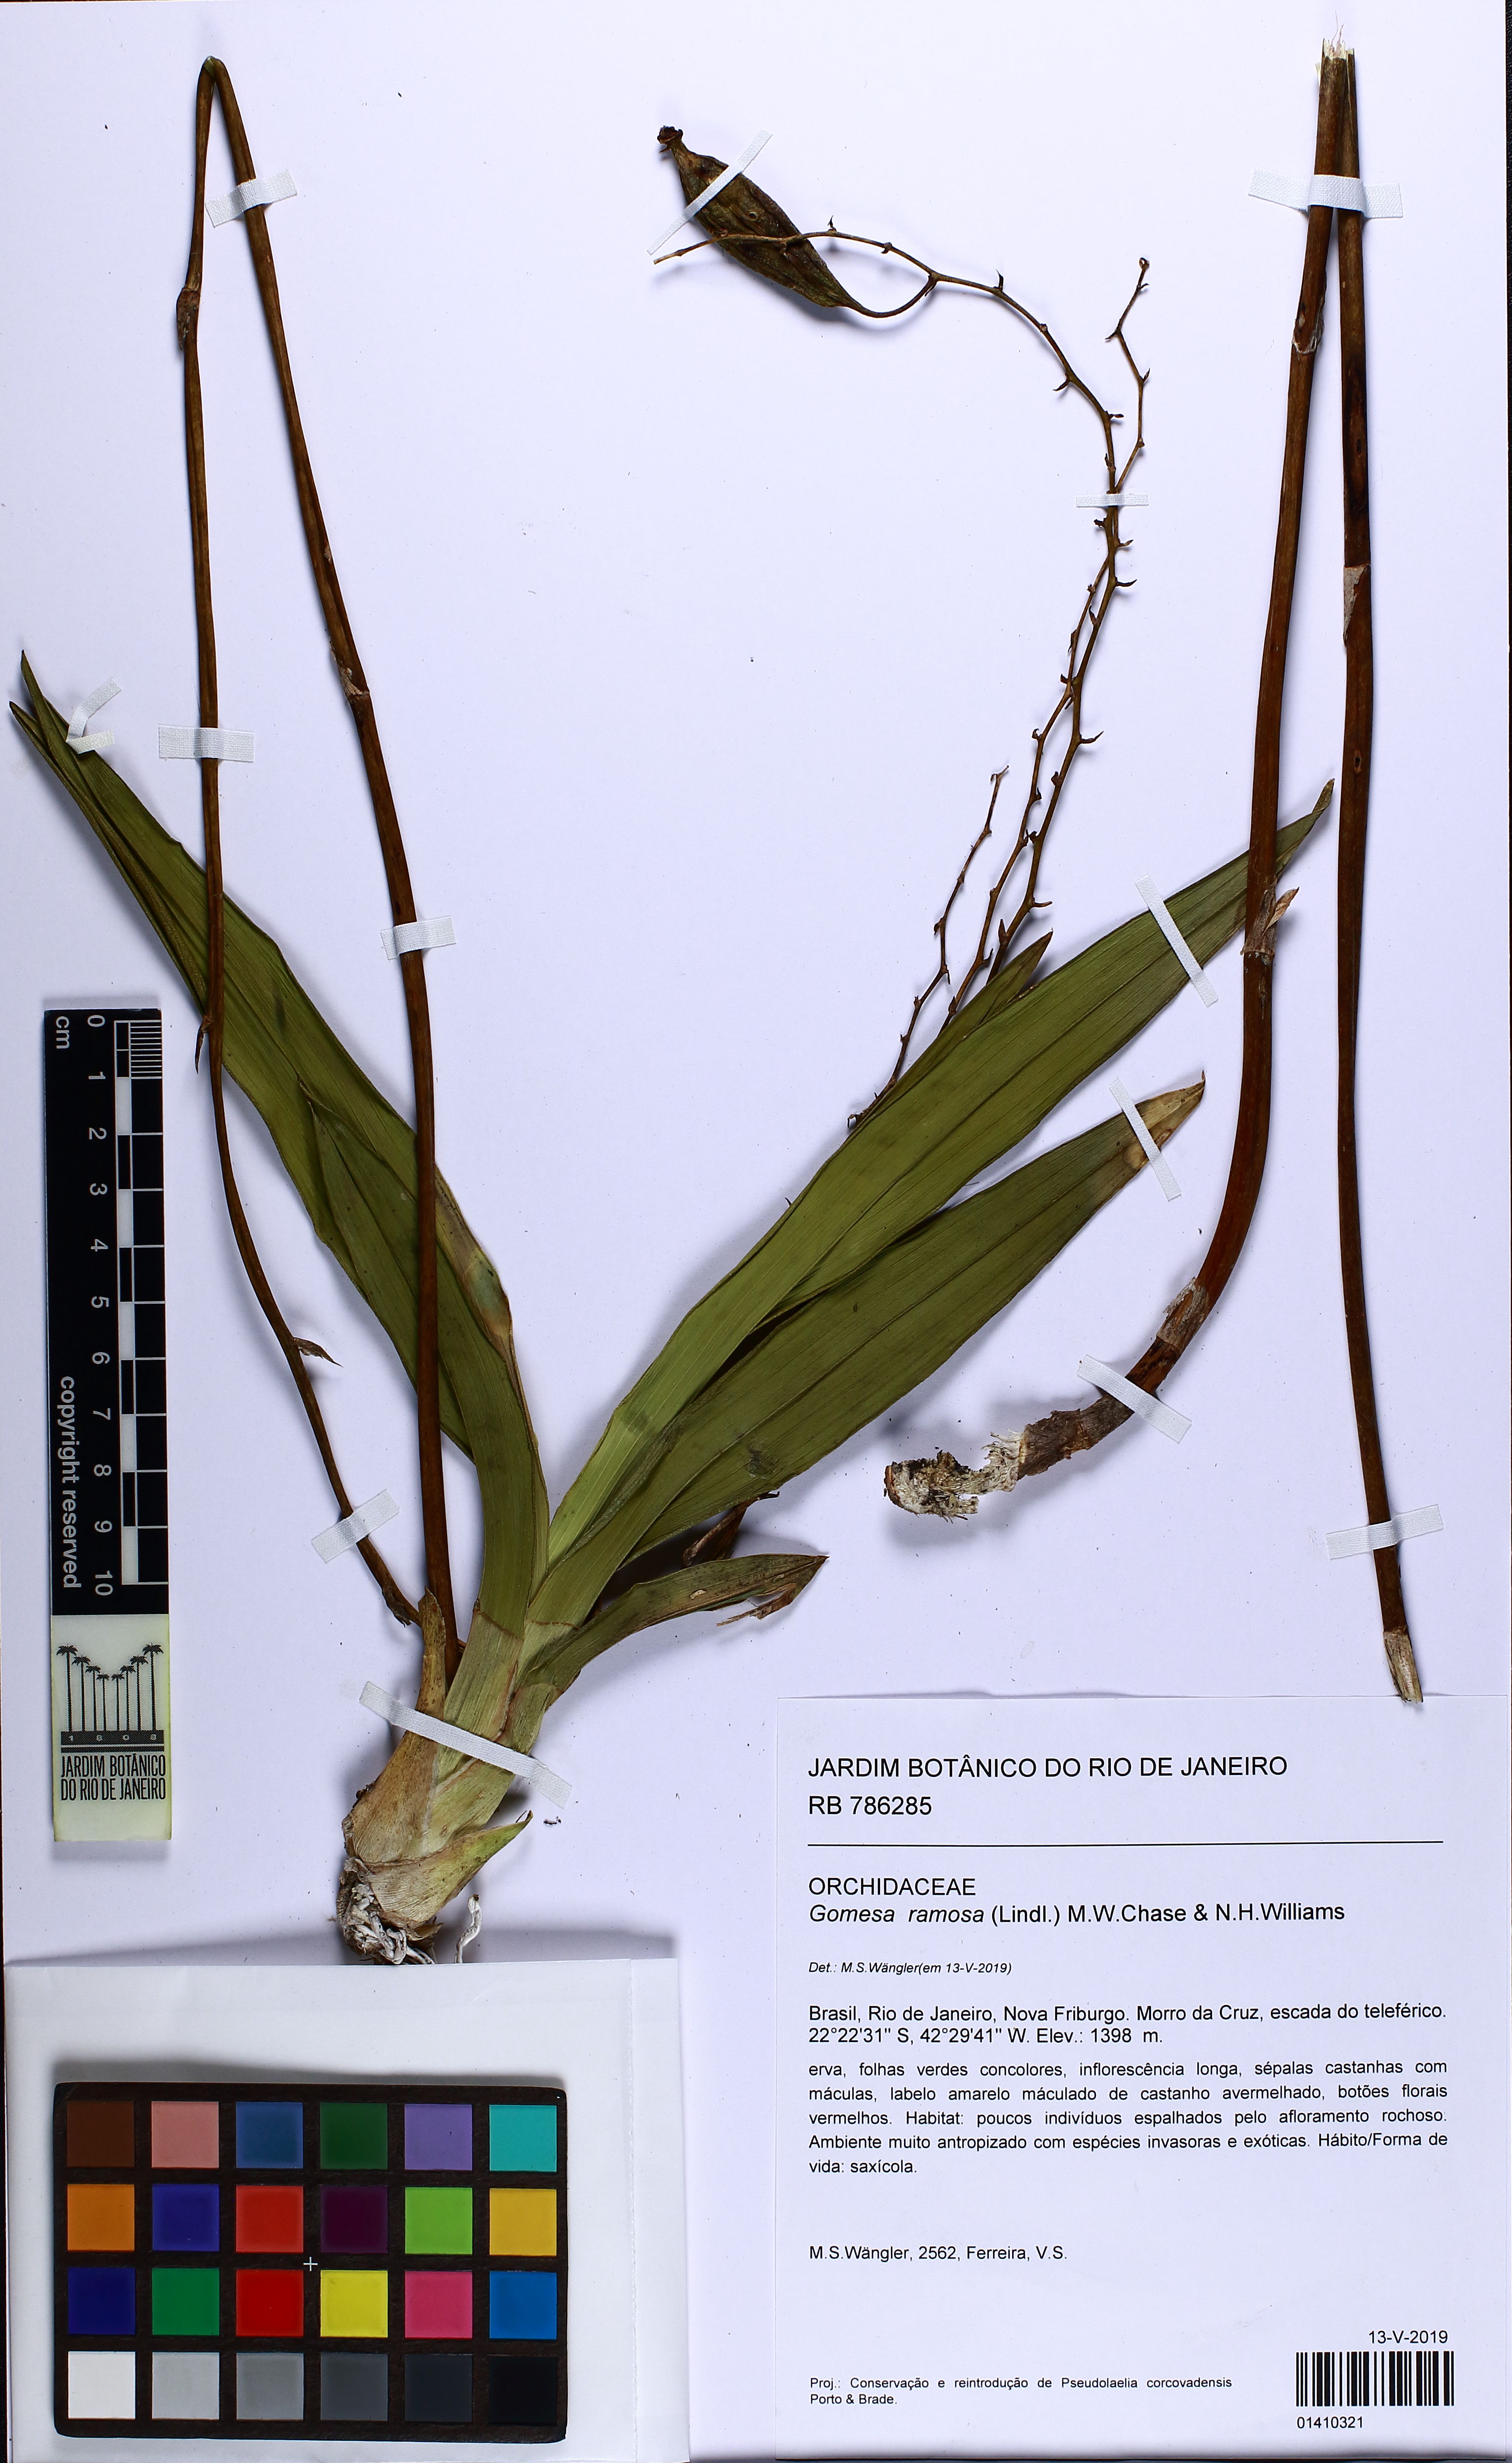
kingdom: Plantae
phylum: Tracheophyta
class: Liliopsida
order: Asparagales
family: Orchidaceae
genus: Gomesa
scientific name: Gomesa ramosa
